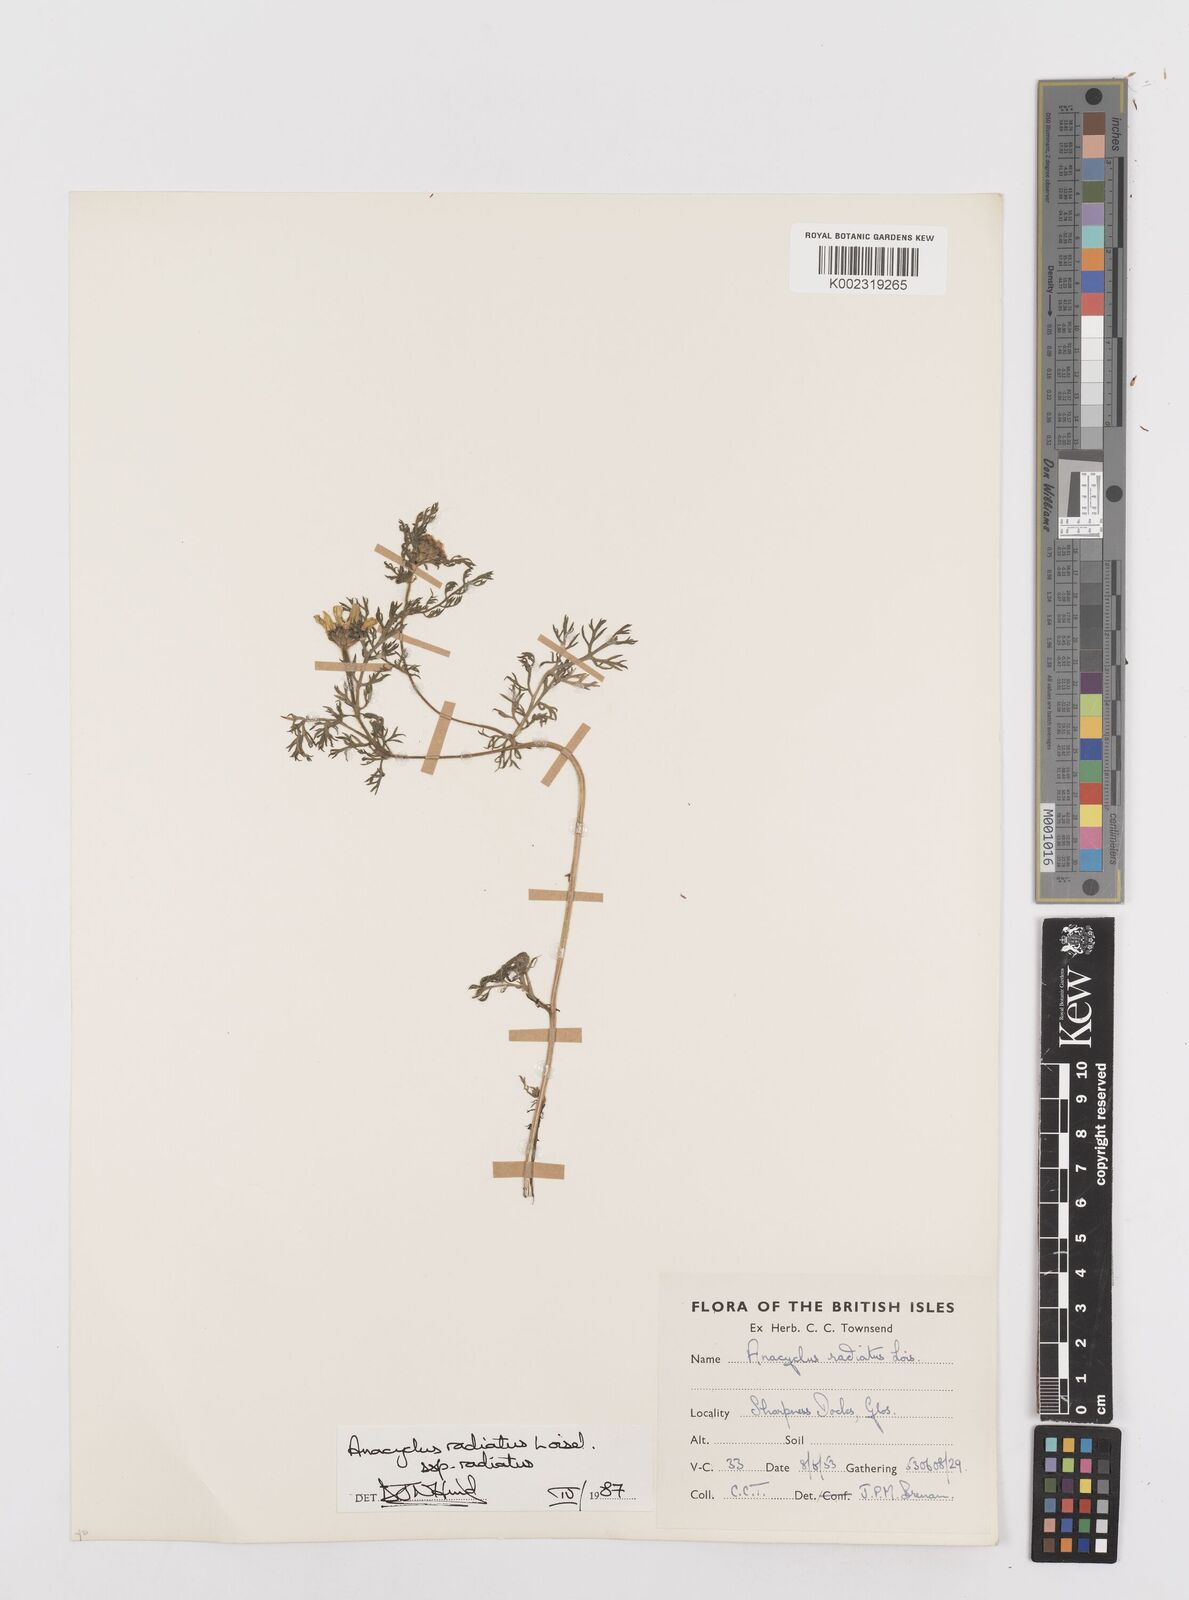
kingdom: Plantae
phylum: Tracheophyta
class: Magnoliopsida
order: Asterales
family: Asteraceae
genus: Anacyclus
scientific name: Anacyclus radiatus
